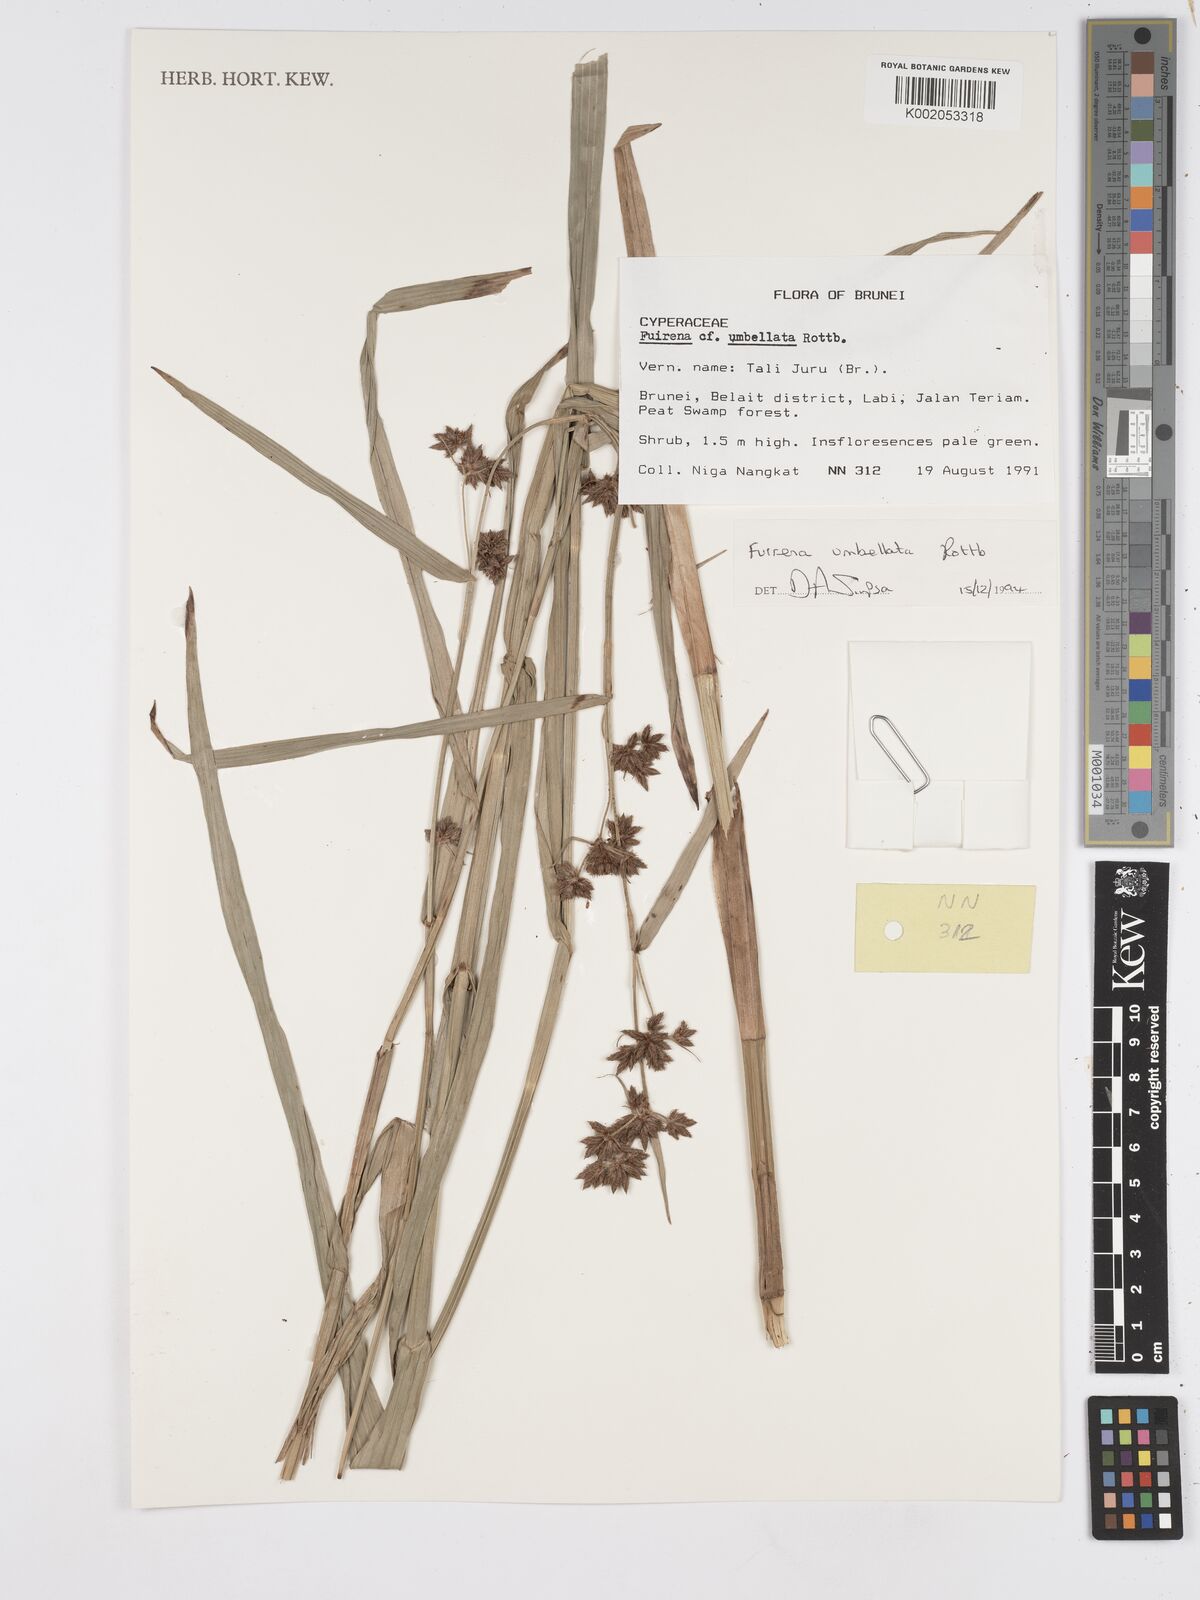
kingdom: Plantae
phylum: Tracheophyta
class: Liliopsida
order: Poales
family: Cyperaceae
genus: Fuirena
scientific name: Fuirena umbellata
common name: Yefen
